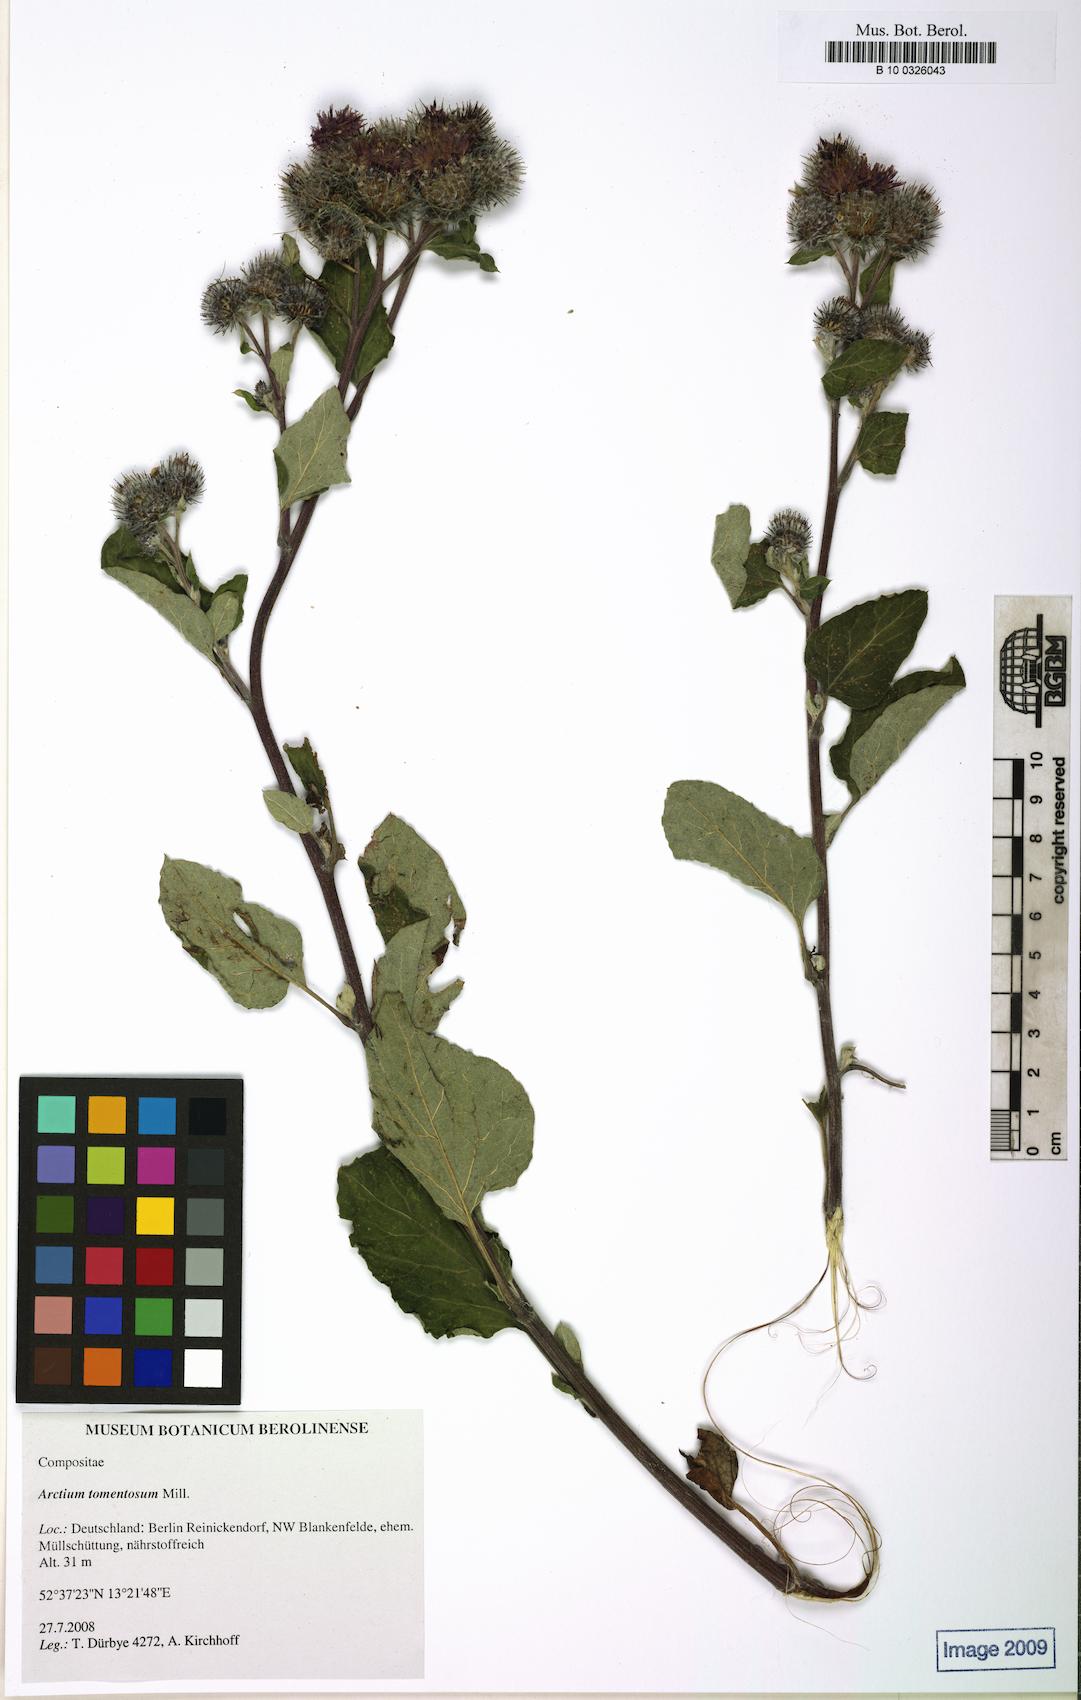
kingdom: Plantae
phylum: Tracheophyta
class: Magnoliopsida
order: Asterales
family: Asteraceae
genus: Arctium
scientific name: Arctium tomentosum
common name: Woolly burdock
